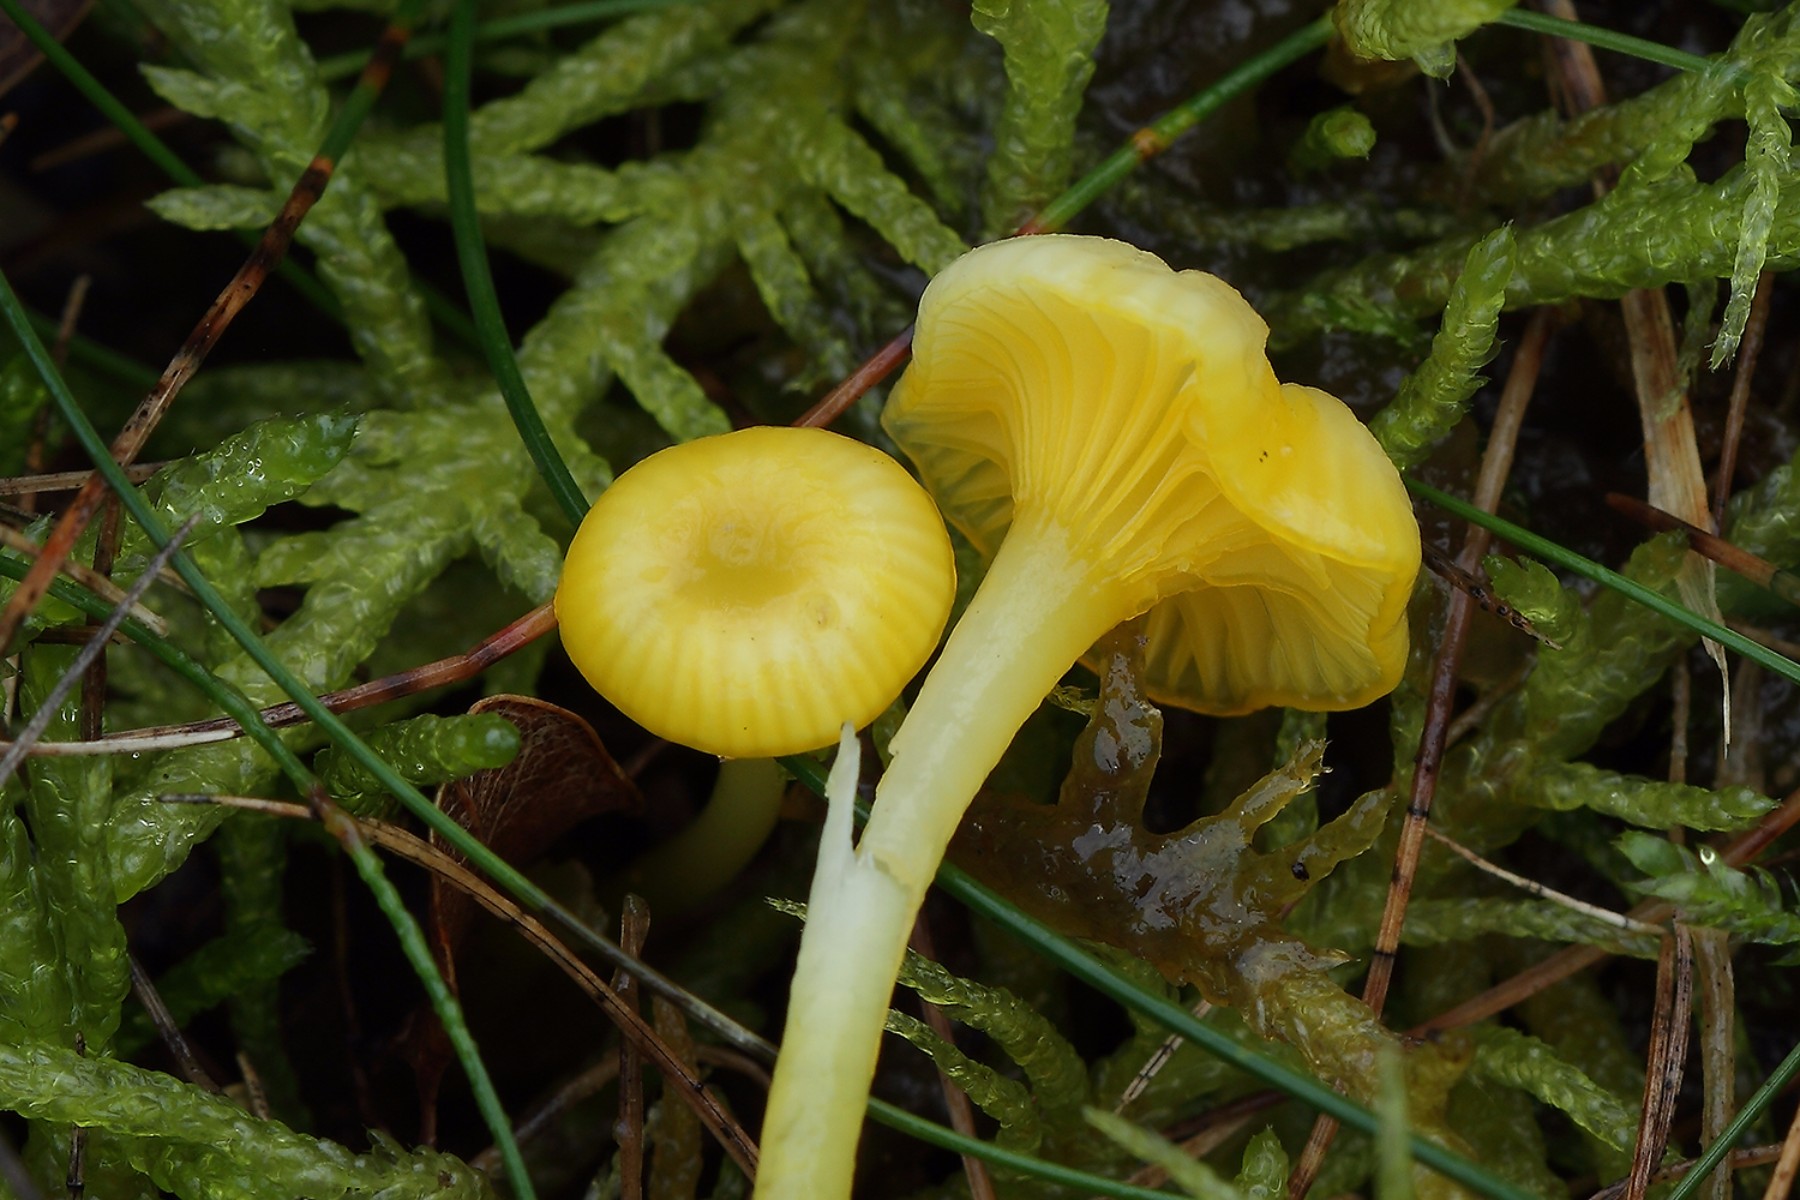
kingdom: Fungi
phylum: Basidiomycota
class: Agaricomycetes
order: Agaricales
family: Hygrophoraceae
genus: Gloioxanthomyces
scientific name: Gloioxanthomyces vitellinus
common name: kromgul vokshat
